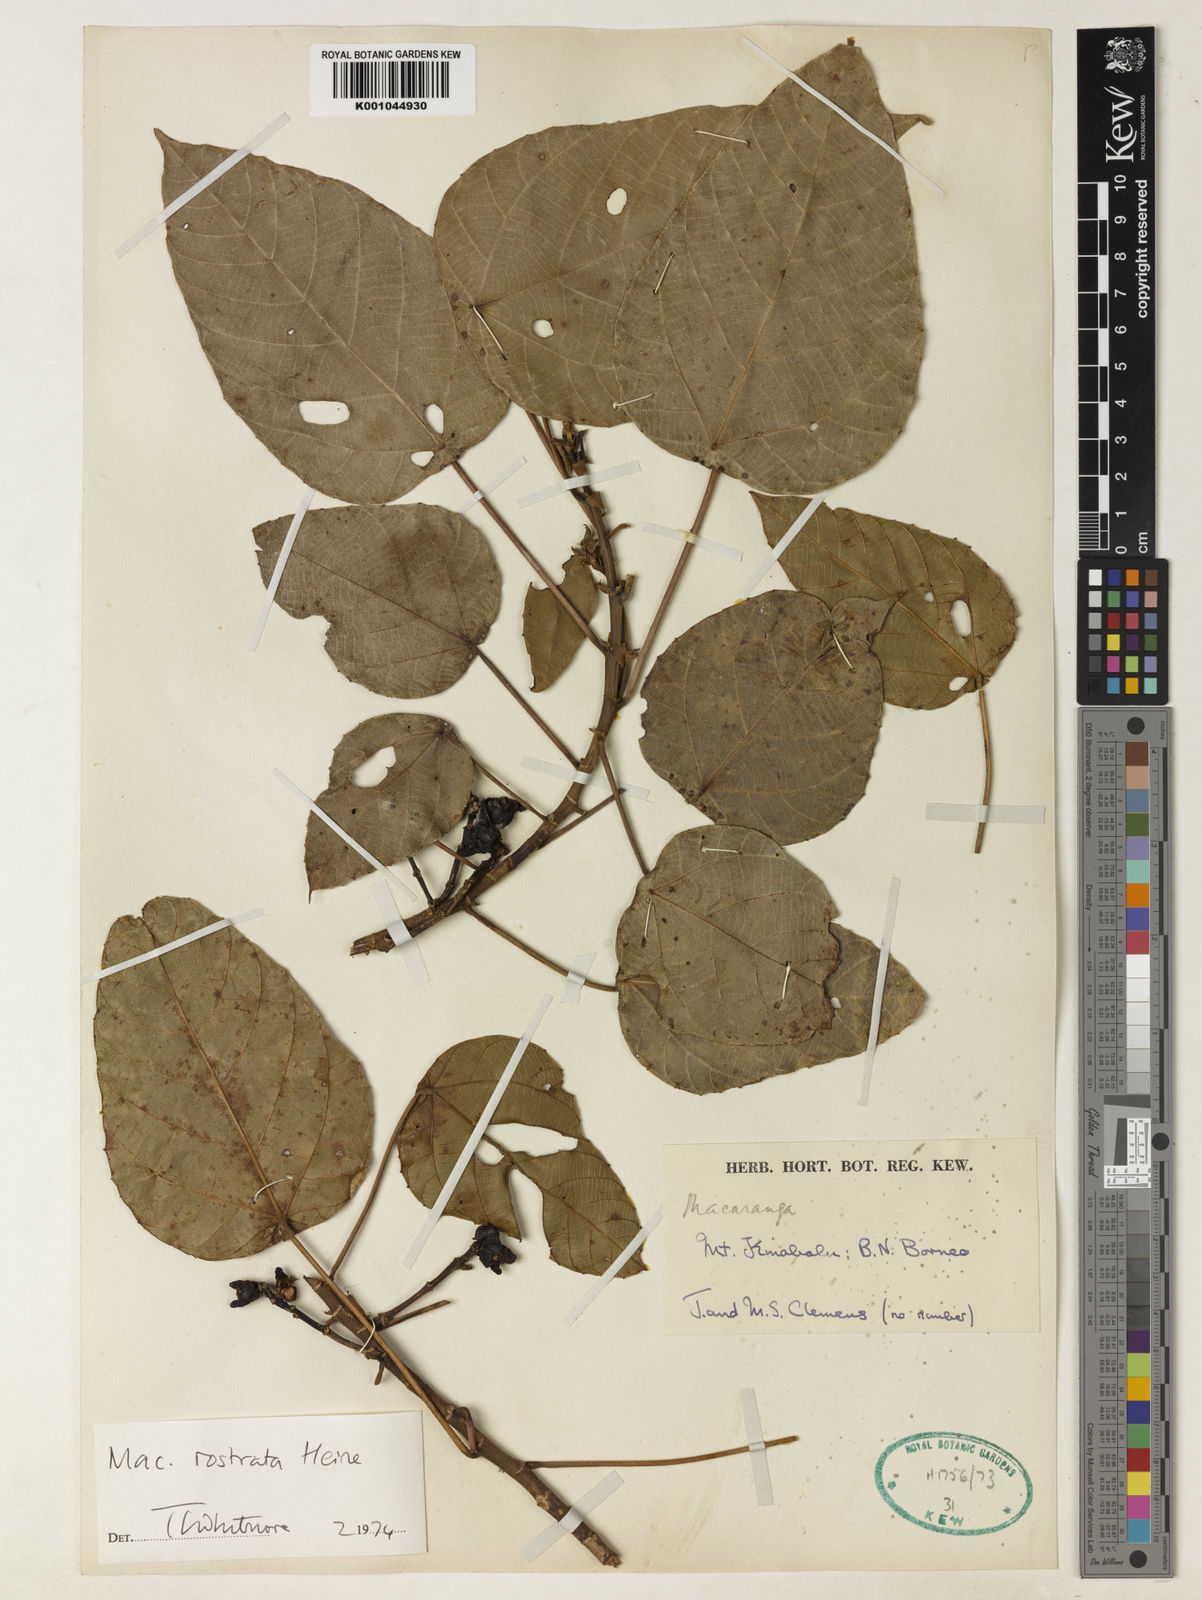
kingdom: Plantae
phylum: Tracheophyta
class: Magnoliopsida
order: Malpighiales
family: Euphorbiaceae
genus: Macaranga
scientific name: Macaranga rostrata
